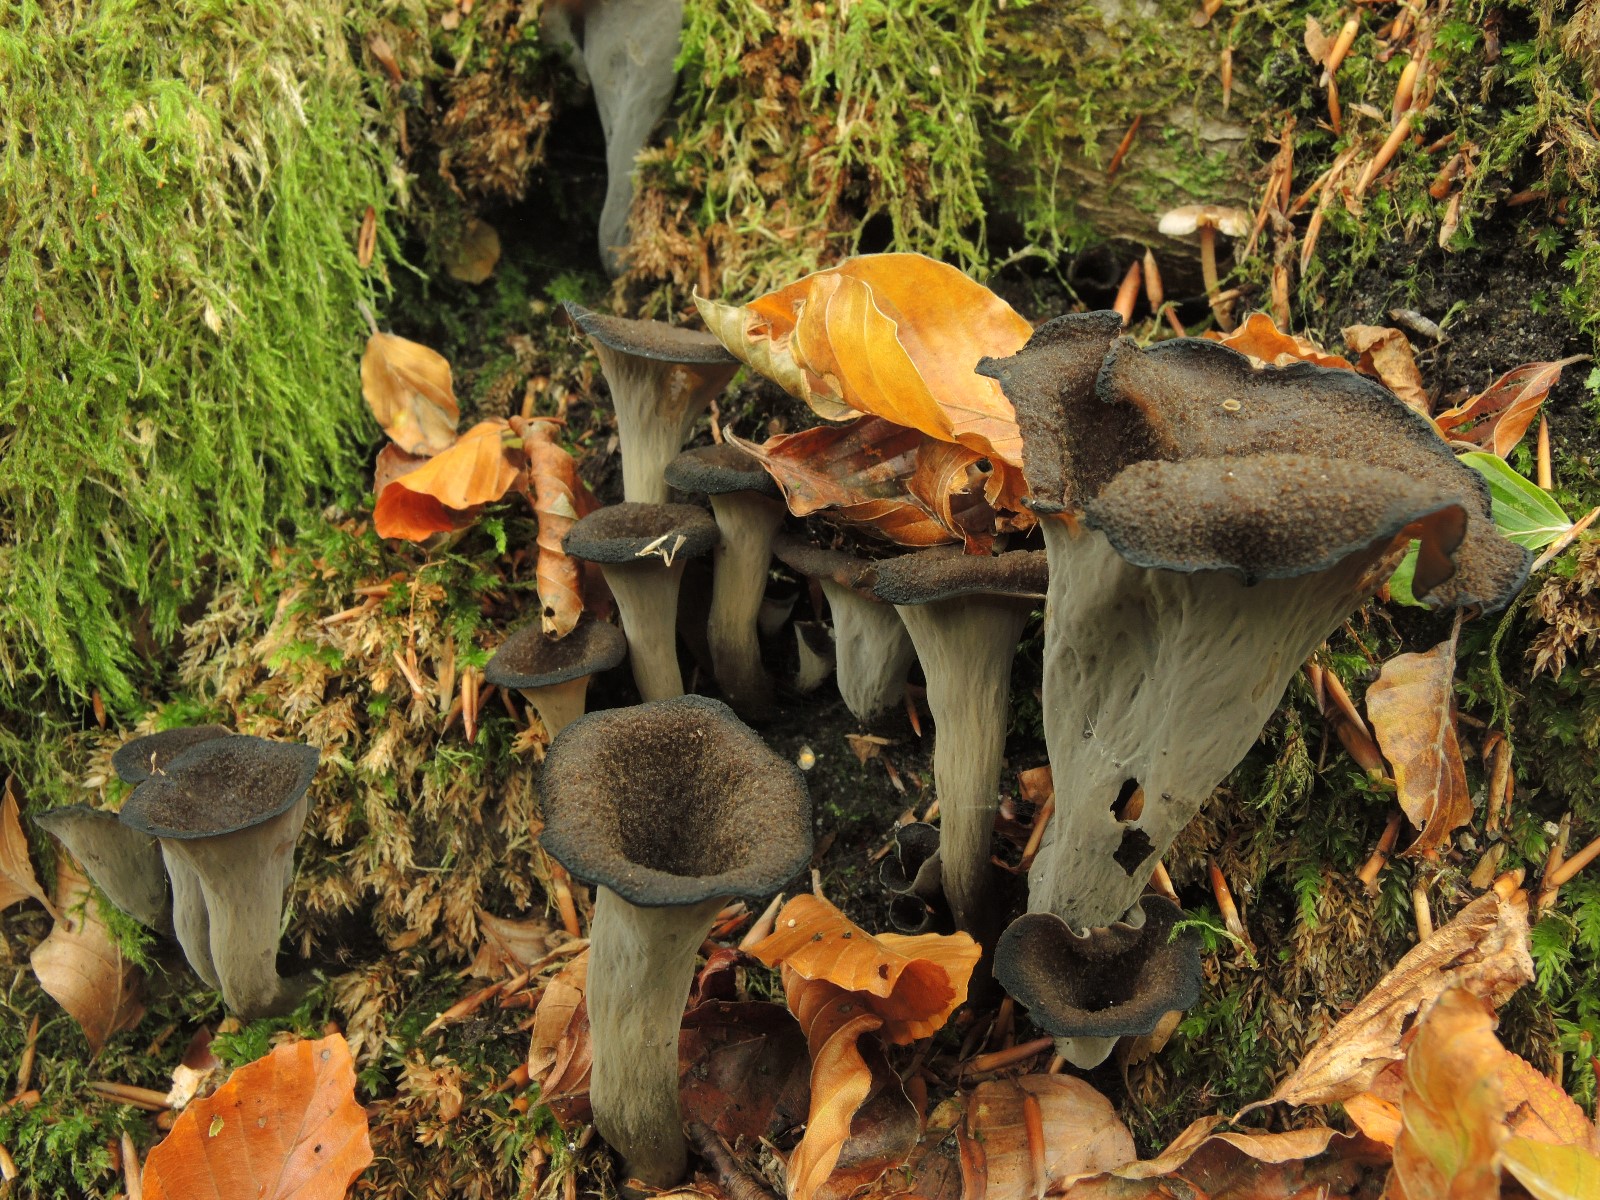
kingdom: Fungi
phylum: Basidiomycota
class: Agaricomycetes
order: Cantharellales
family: Hydnaceae
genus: Craterellus
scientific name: Craterellus cornucopioides
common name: trompetsvamp
